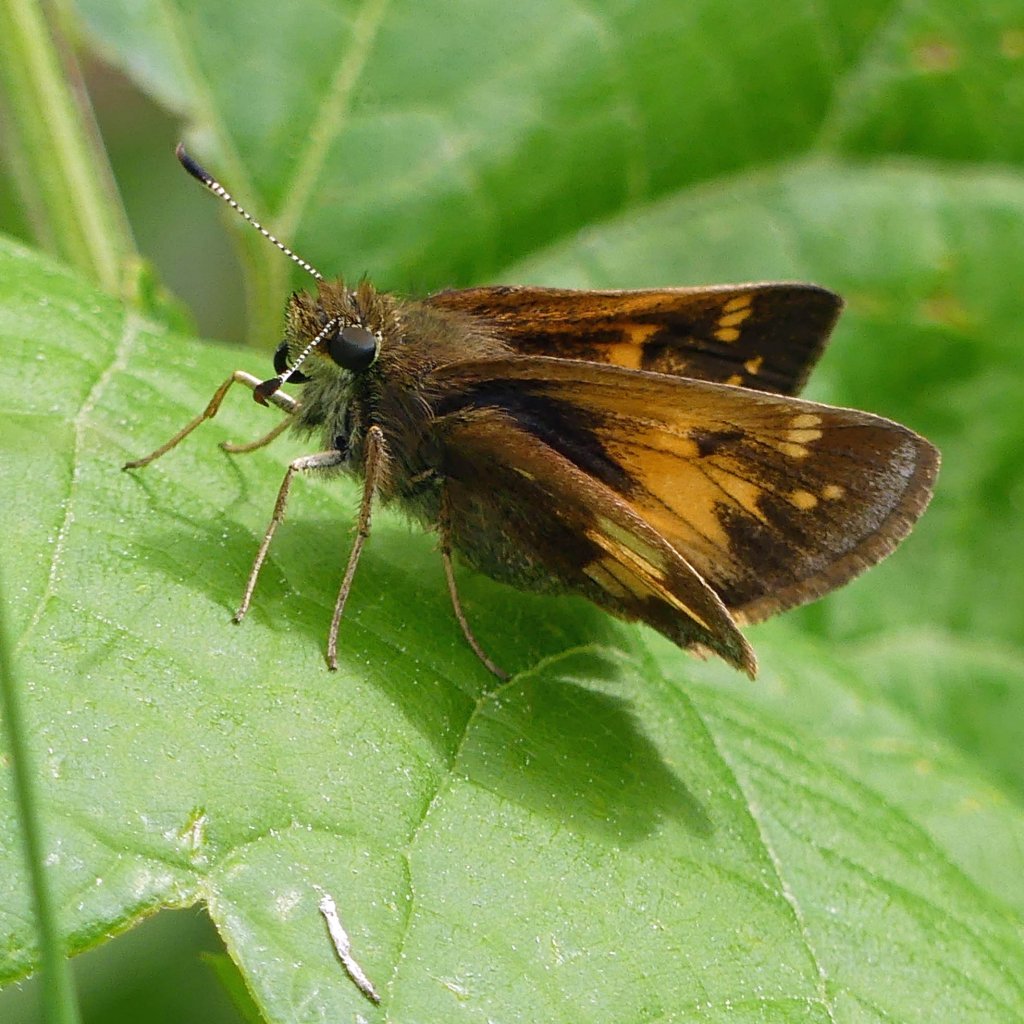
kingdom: Animalia
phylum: Arthropoda
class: Insecta
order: Lepidoptera
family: Hesperiidae
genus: Lon
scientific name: Lon hobomok
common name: Hobomok Skipper
